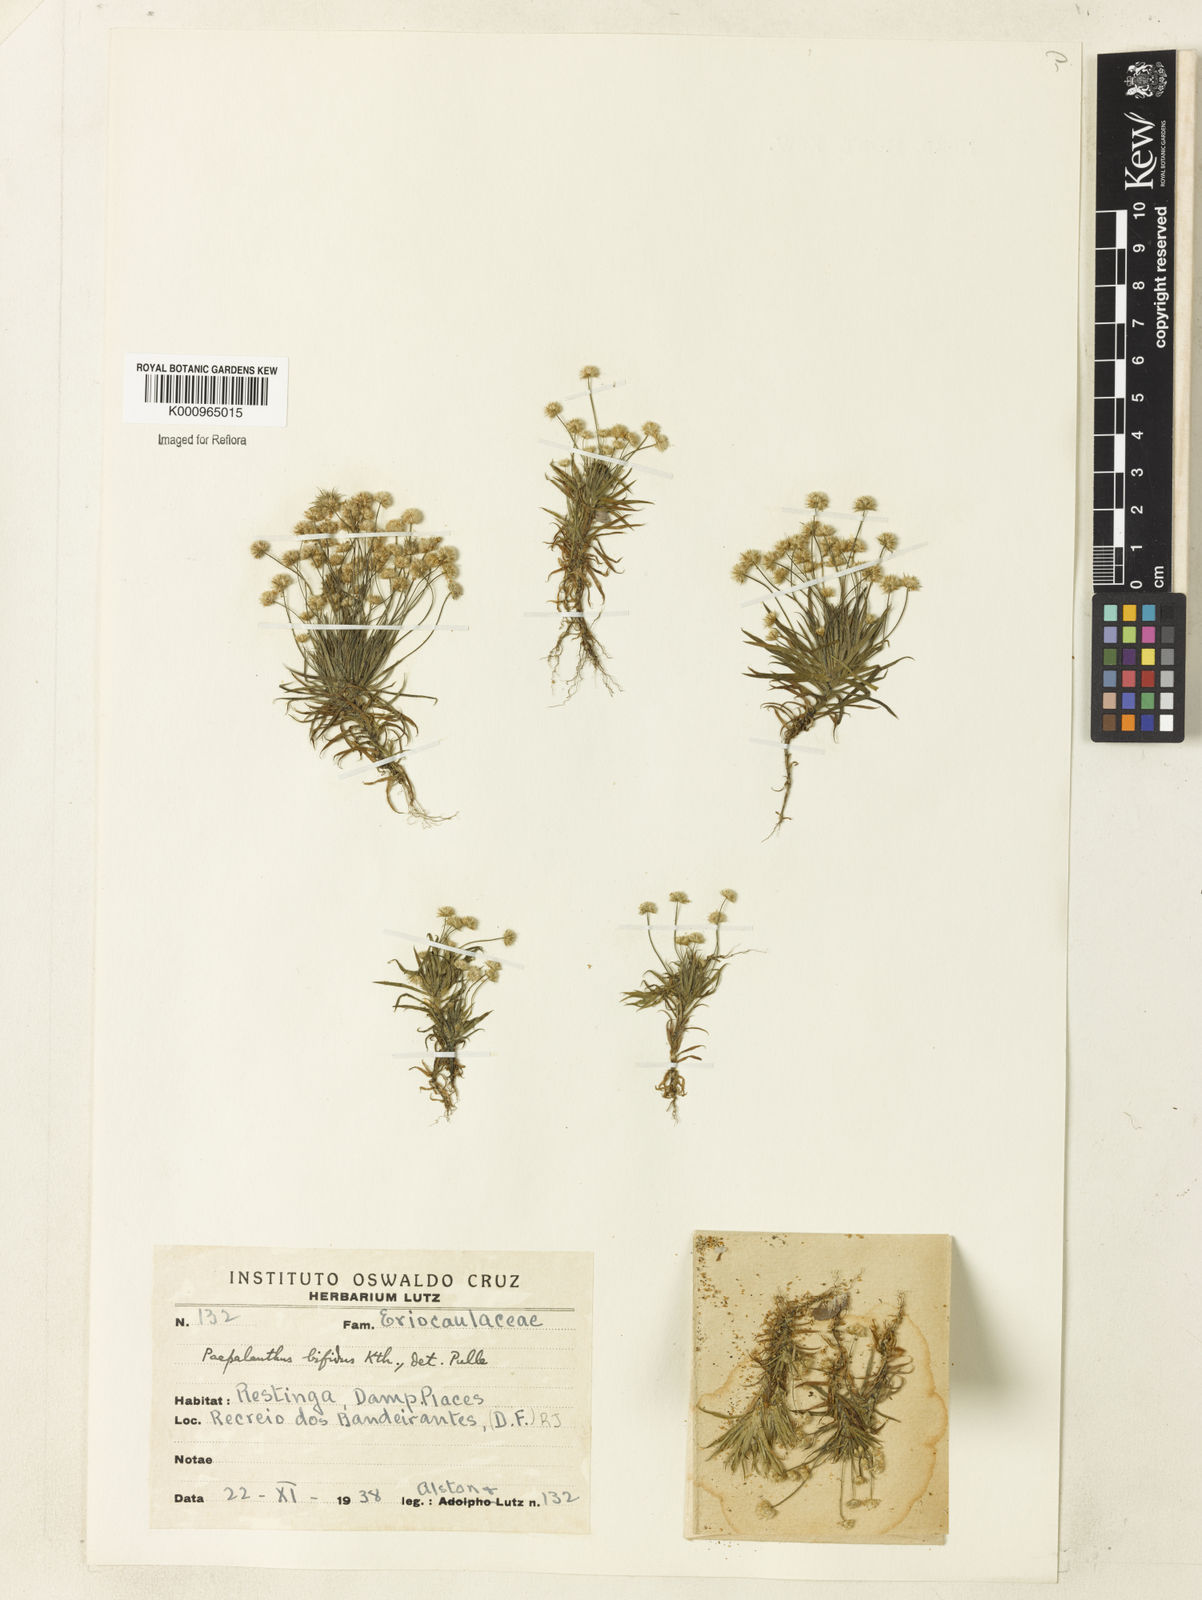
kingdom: Plantae
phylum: Tracheophyta
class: Liliopsida
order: Poales
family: Eriocaulaceae
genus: Paepalanthus
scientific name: Paepalanthus bifidus
